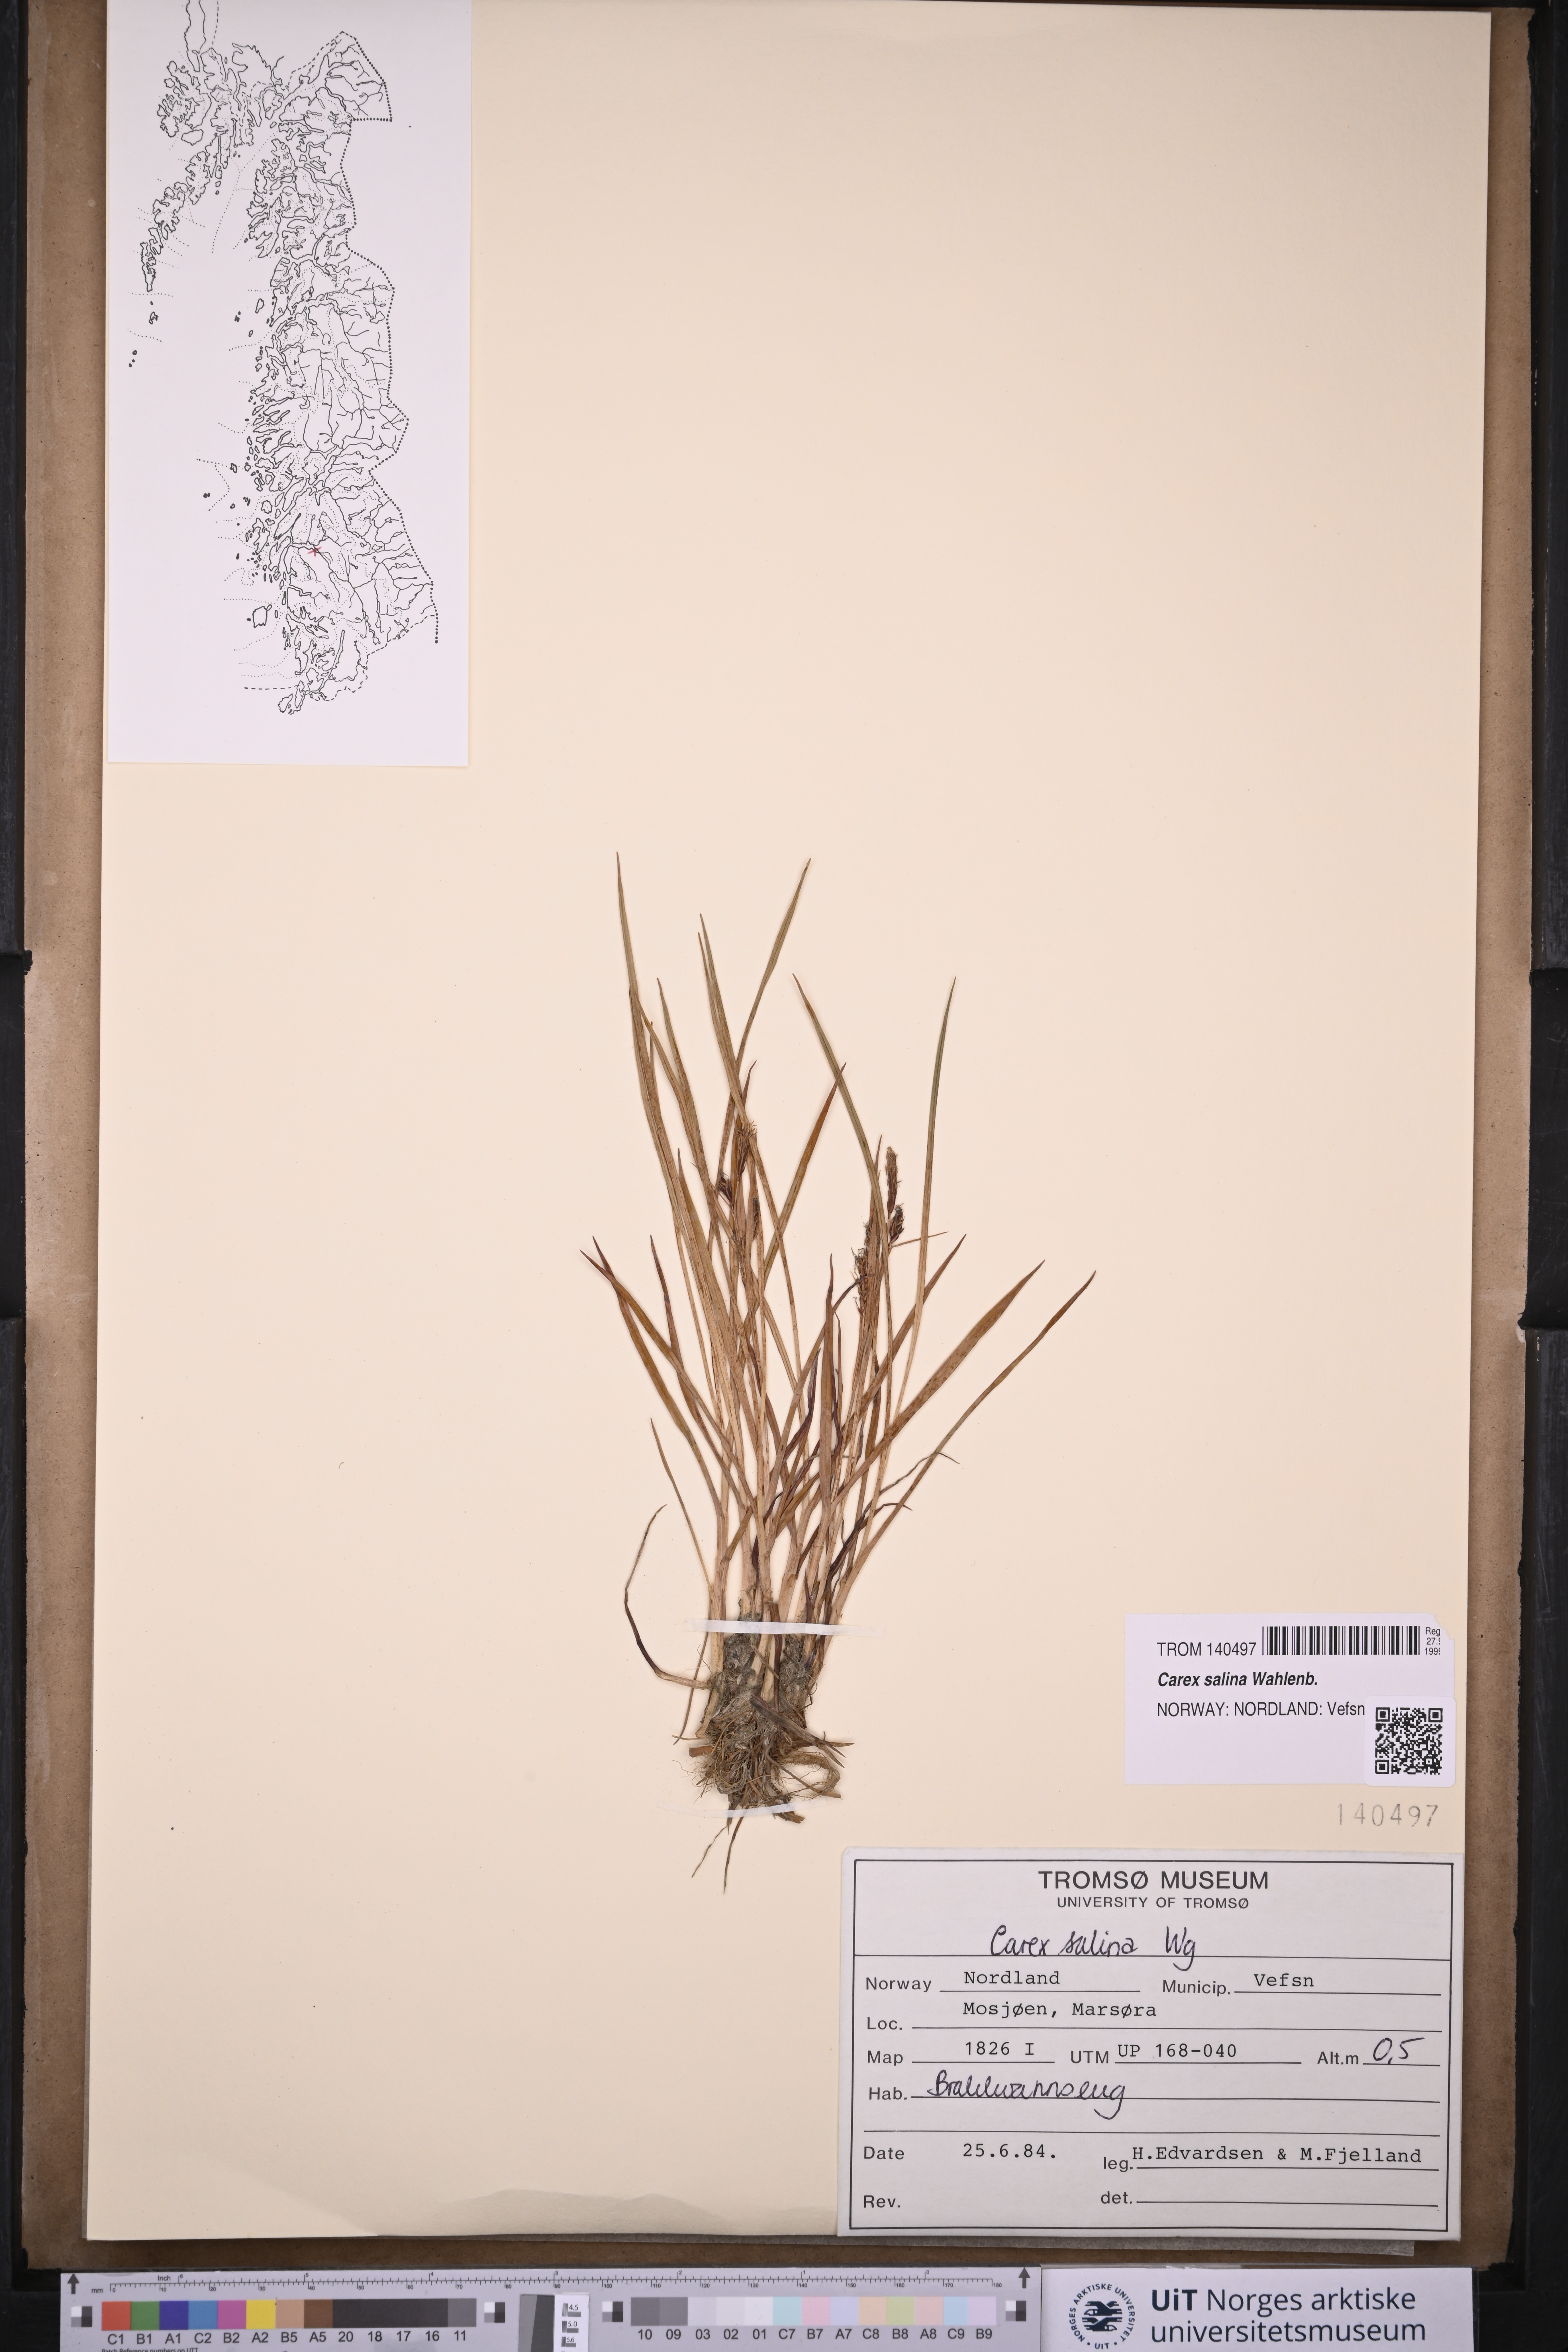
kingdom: Plantae
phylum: Tracheophyta
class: Liliopsida
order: Poales
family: Cyperaceae
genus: Carex
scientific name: Carex salina
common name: Saltmarsh sedge
